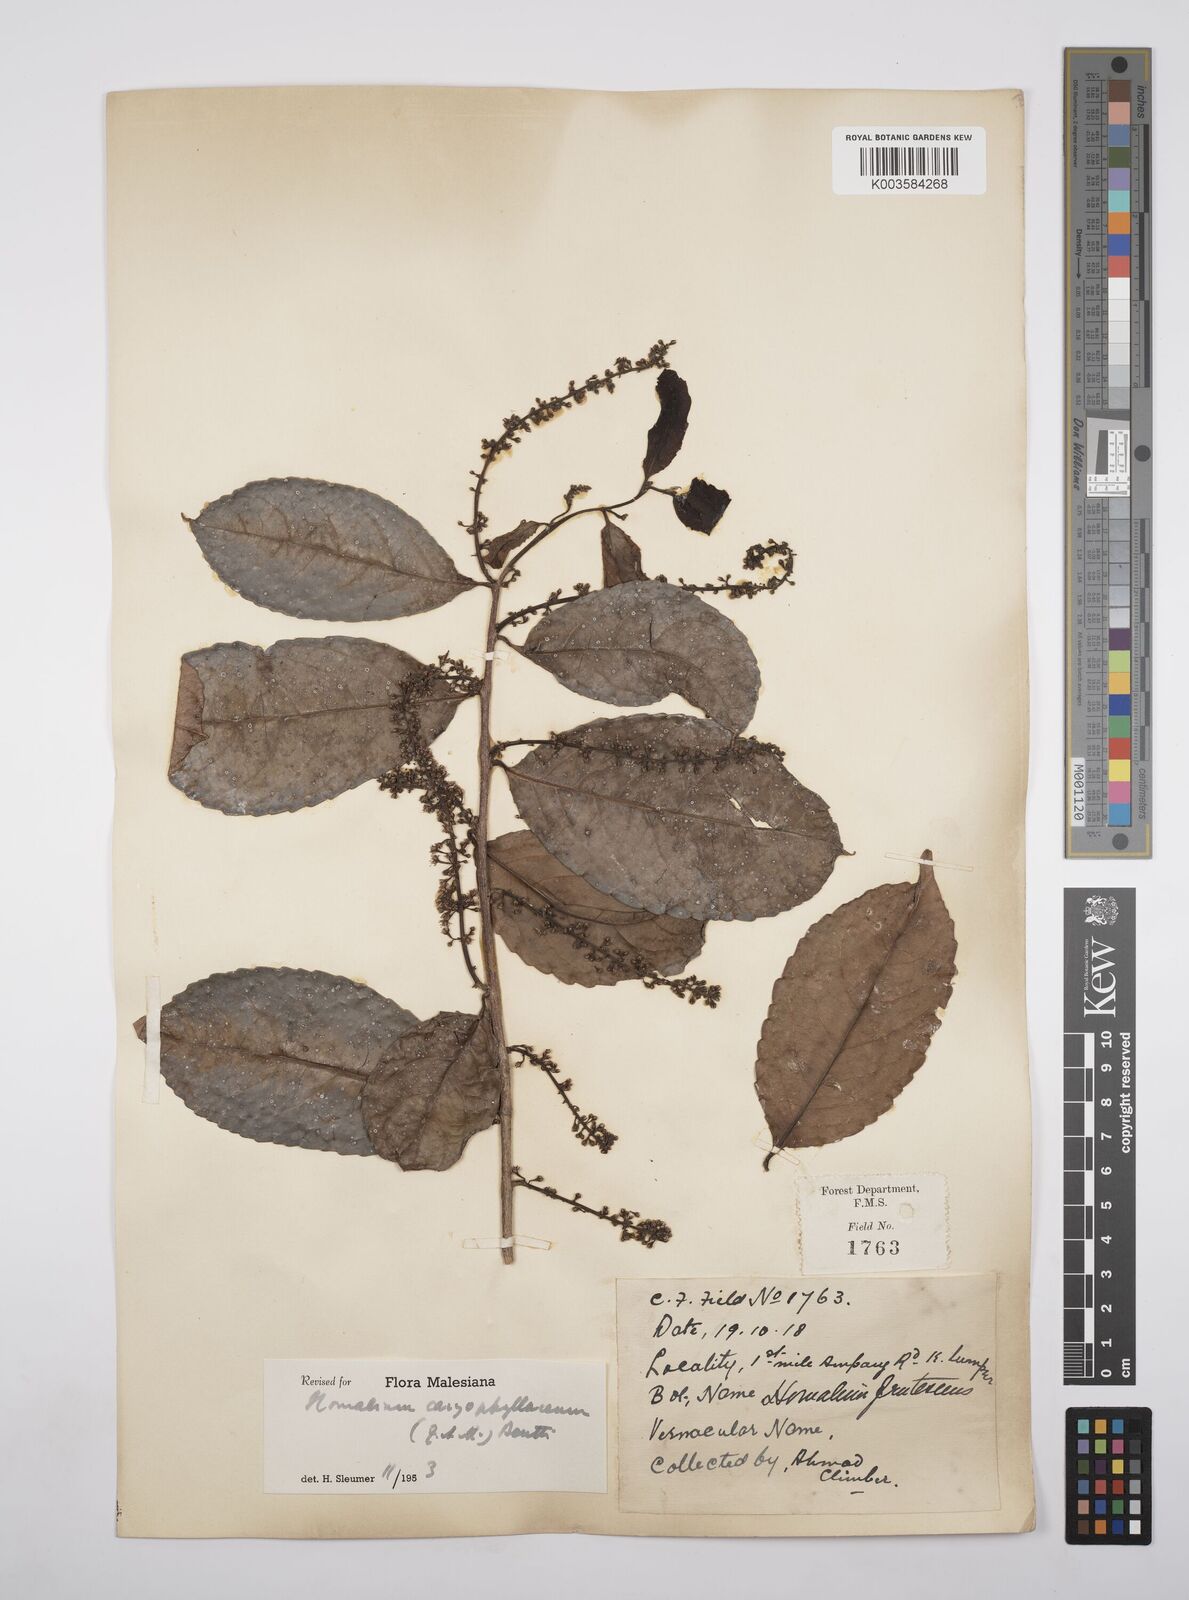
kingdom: Plantae
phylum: Tracheophyta
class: Magnoliopsida
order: Malpighiales
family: Salicaceae
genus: Homalium
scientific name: Homalium caryophyllaceum
